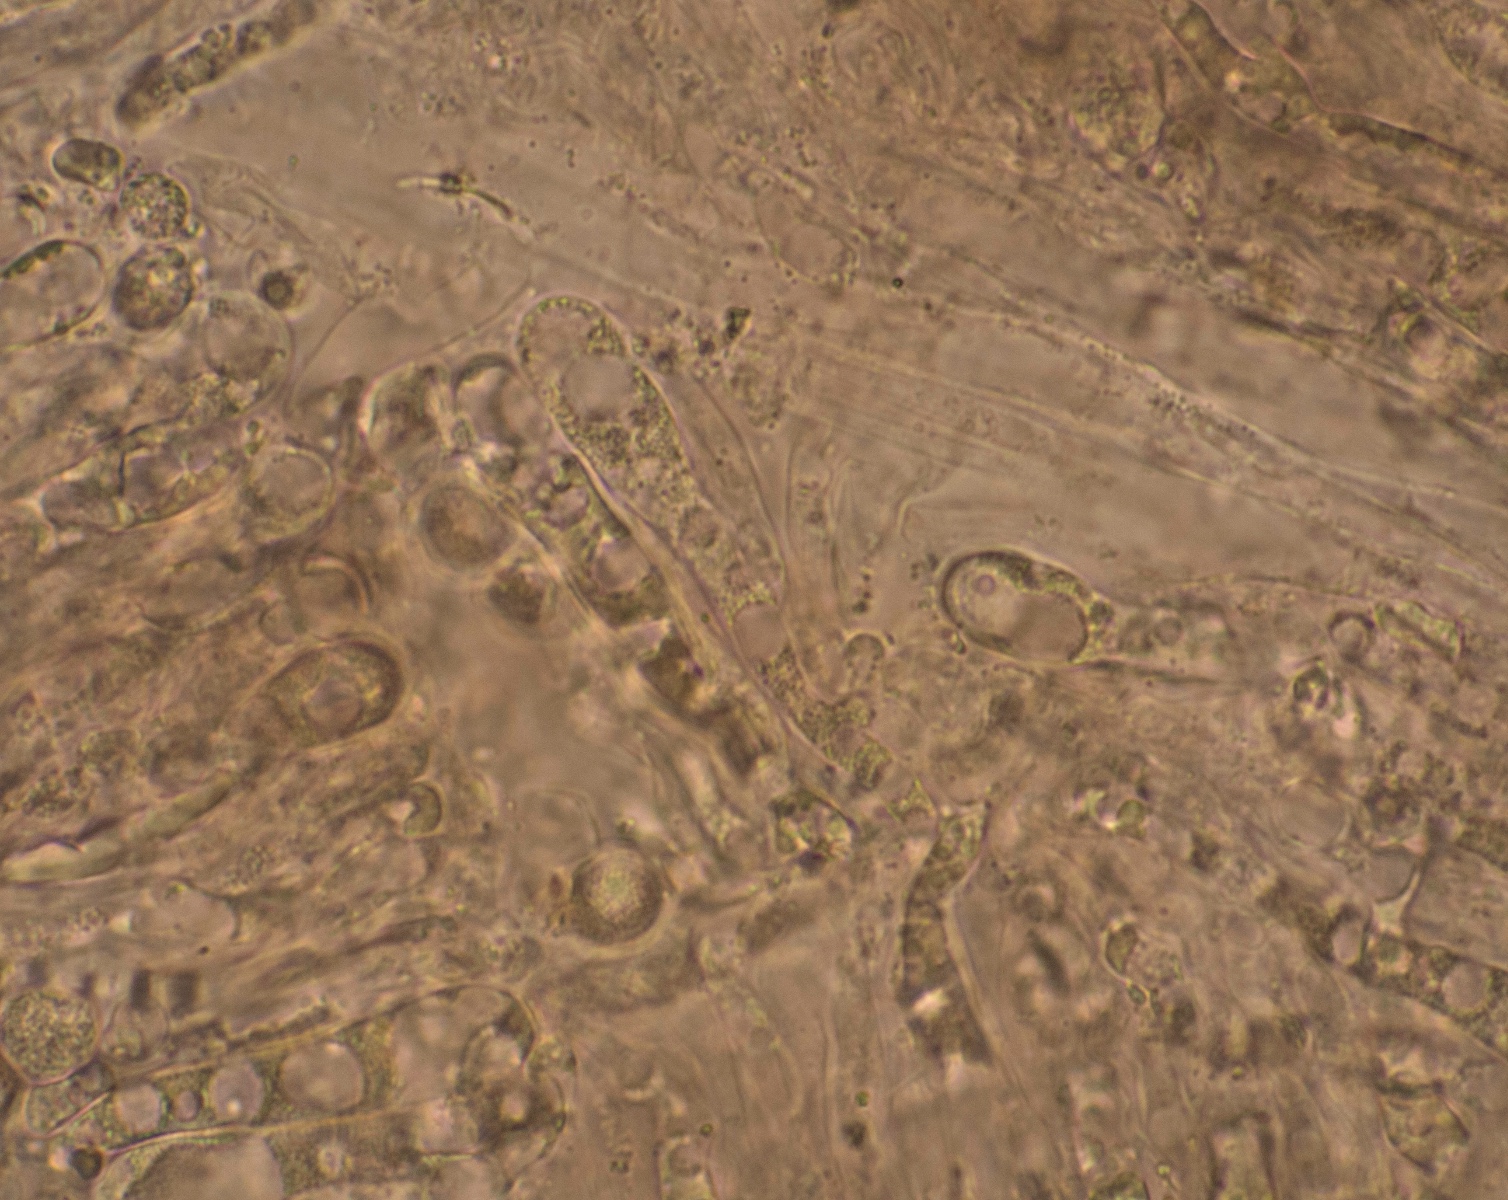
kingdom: Fungi
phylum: Basidiomycota
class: Agaricomycetes
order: Agaricales
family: Clavariaceae
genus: Clavaria
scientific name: Clavaria falcata
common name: hvid køllesvamp
